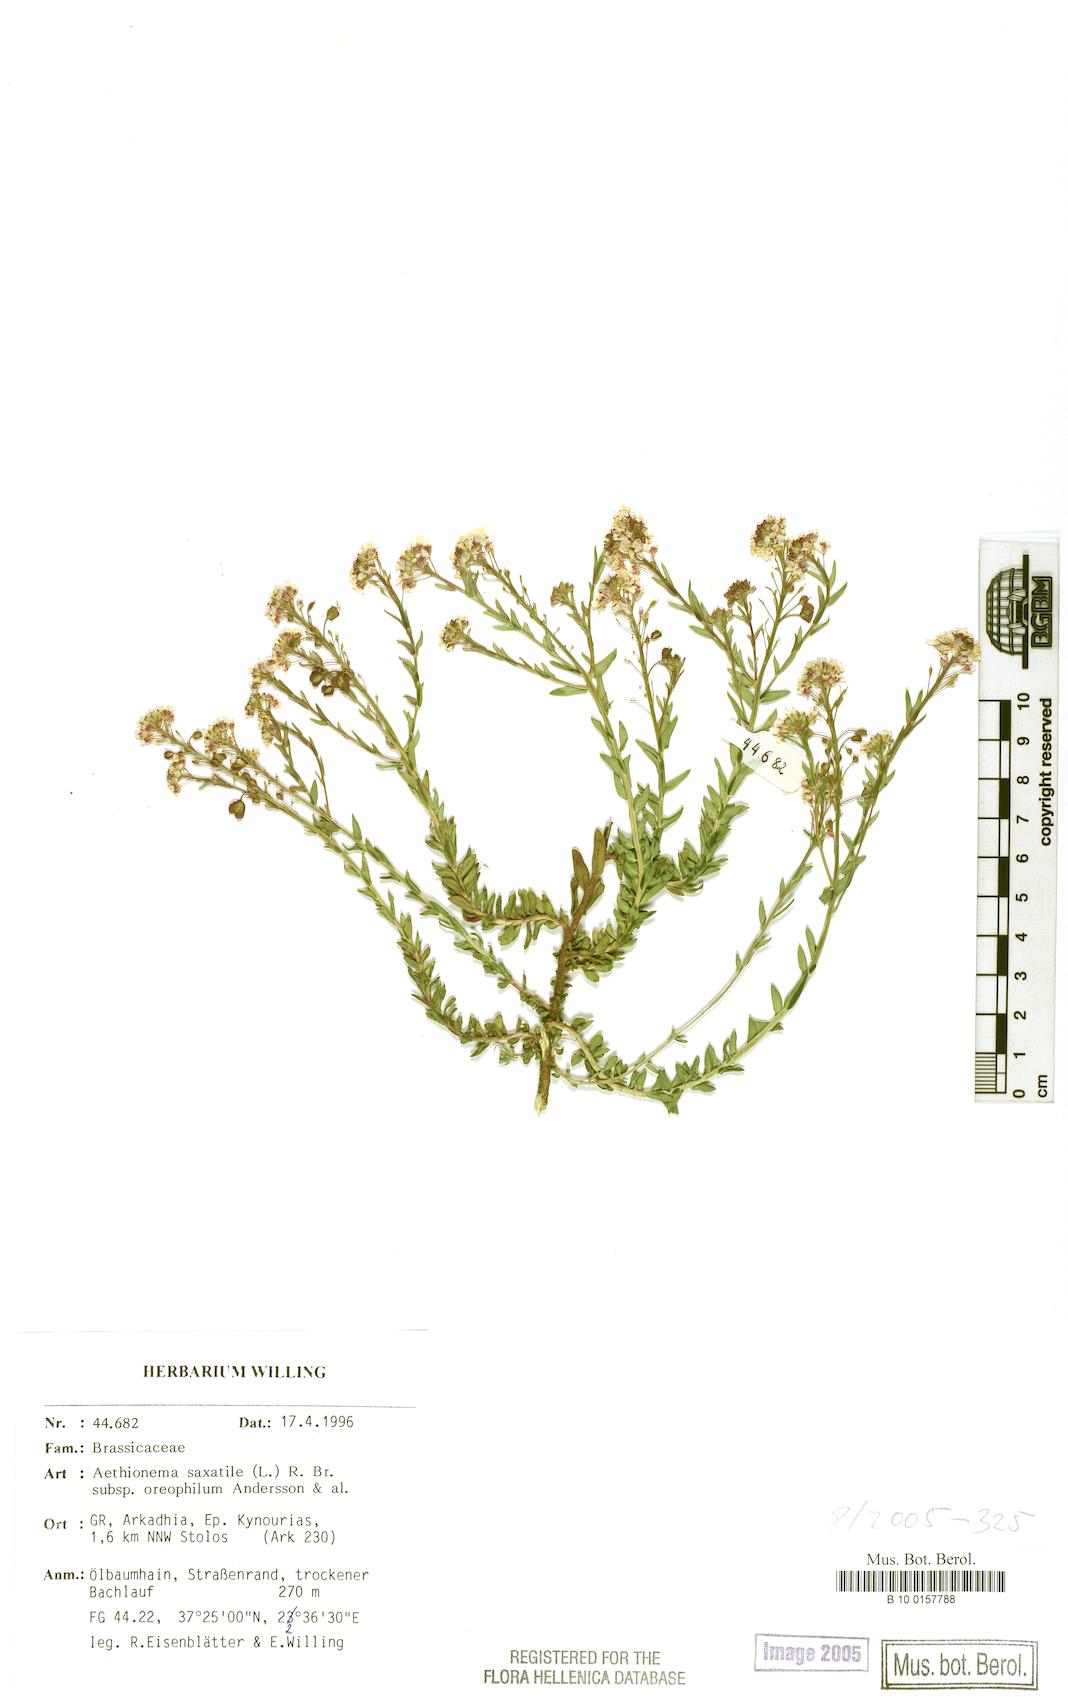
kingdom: Plantae
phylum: Tracheophyta
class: Magnoliopsida
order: Brassicales
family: Brassicaceae
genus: Aethionema
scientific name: Aethionema saxatile
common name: Burnt candytuft
